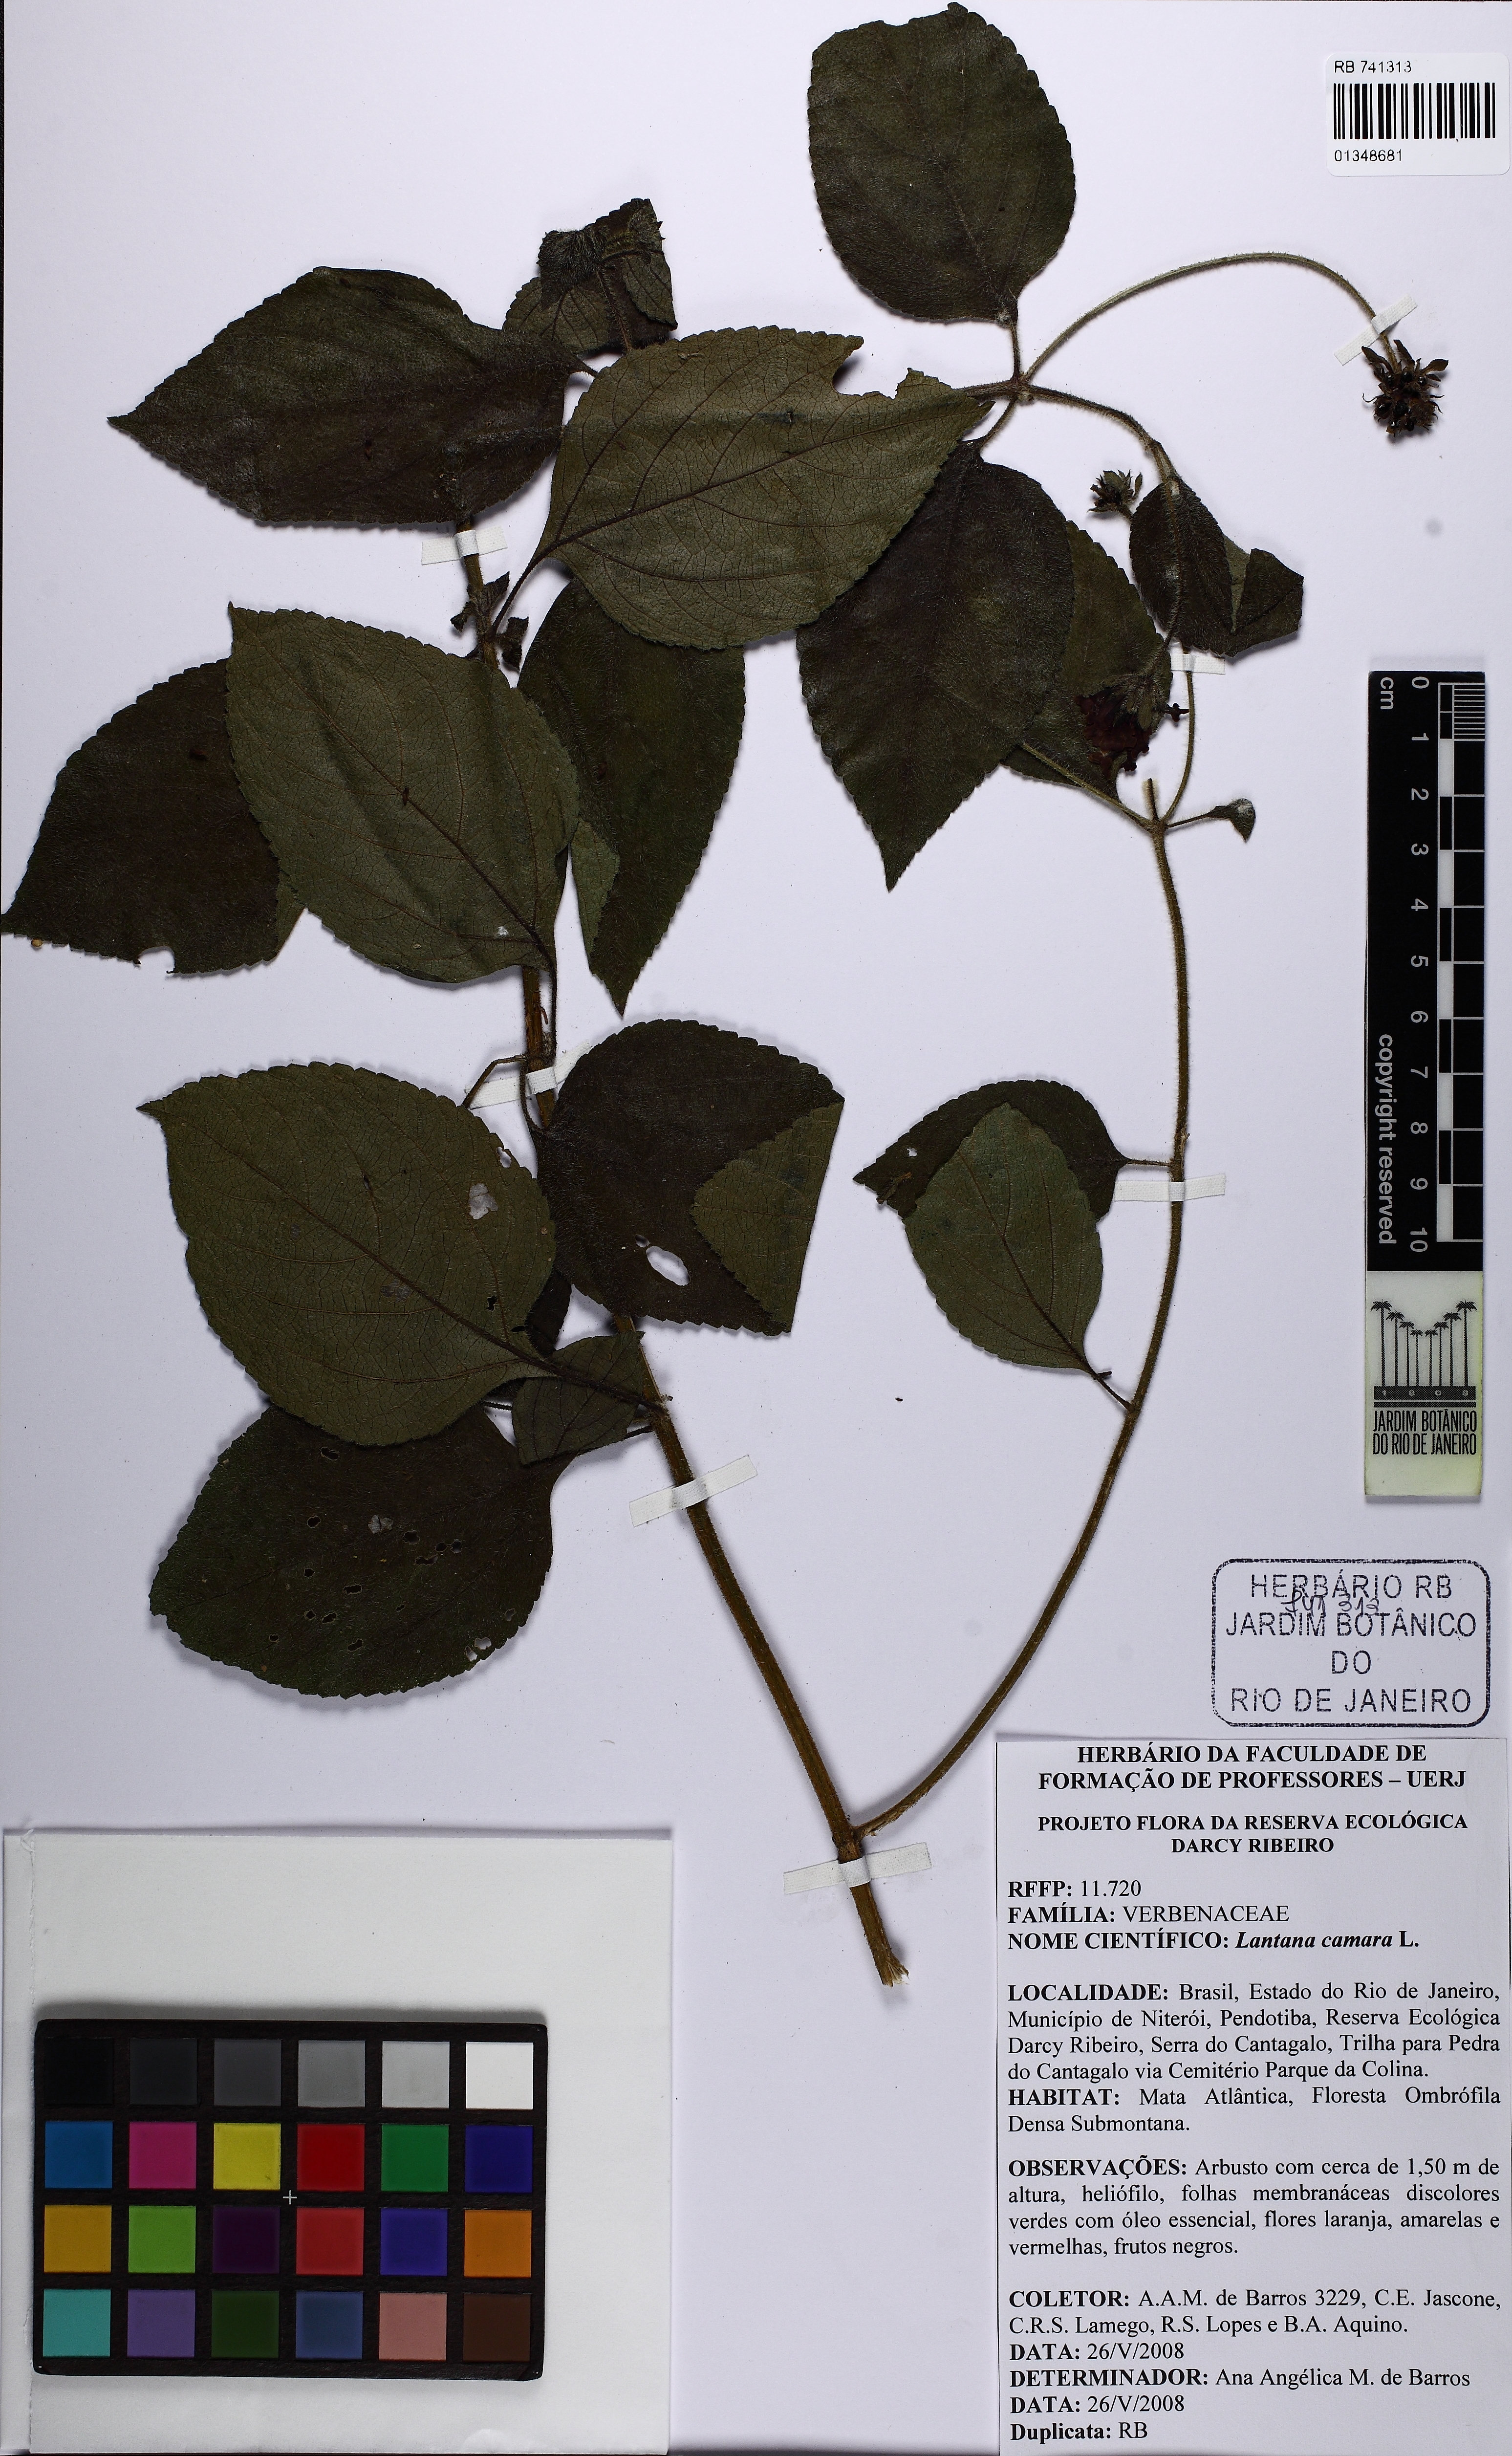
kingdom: Plantae
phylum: Tracheophyta
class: Magnoliopsida
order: Lamiales
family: Verbenaceae
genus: Lantana
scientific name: Lantana camara
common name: Lantana
